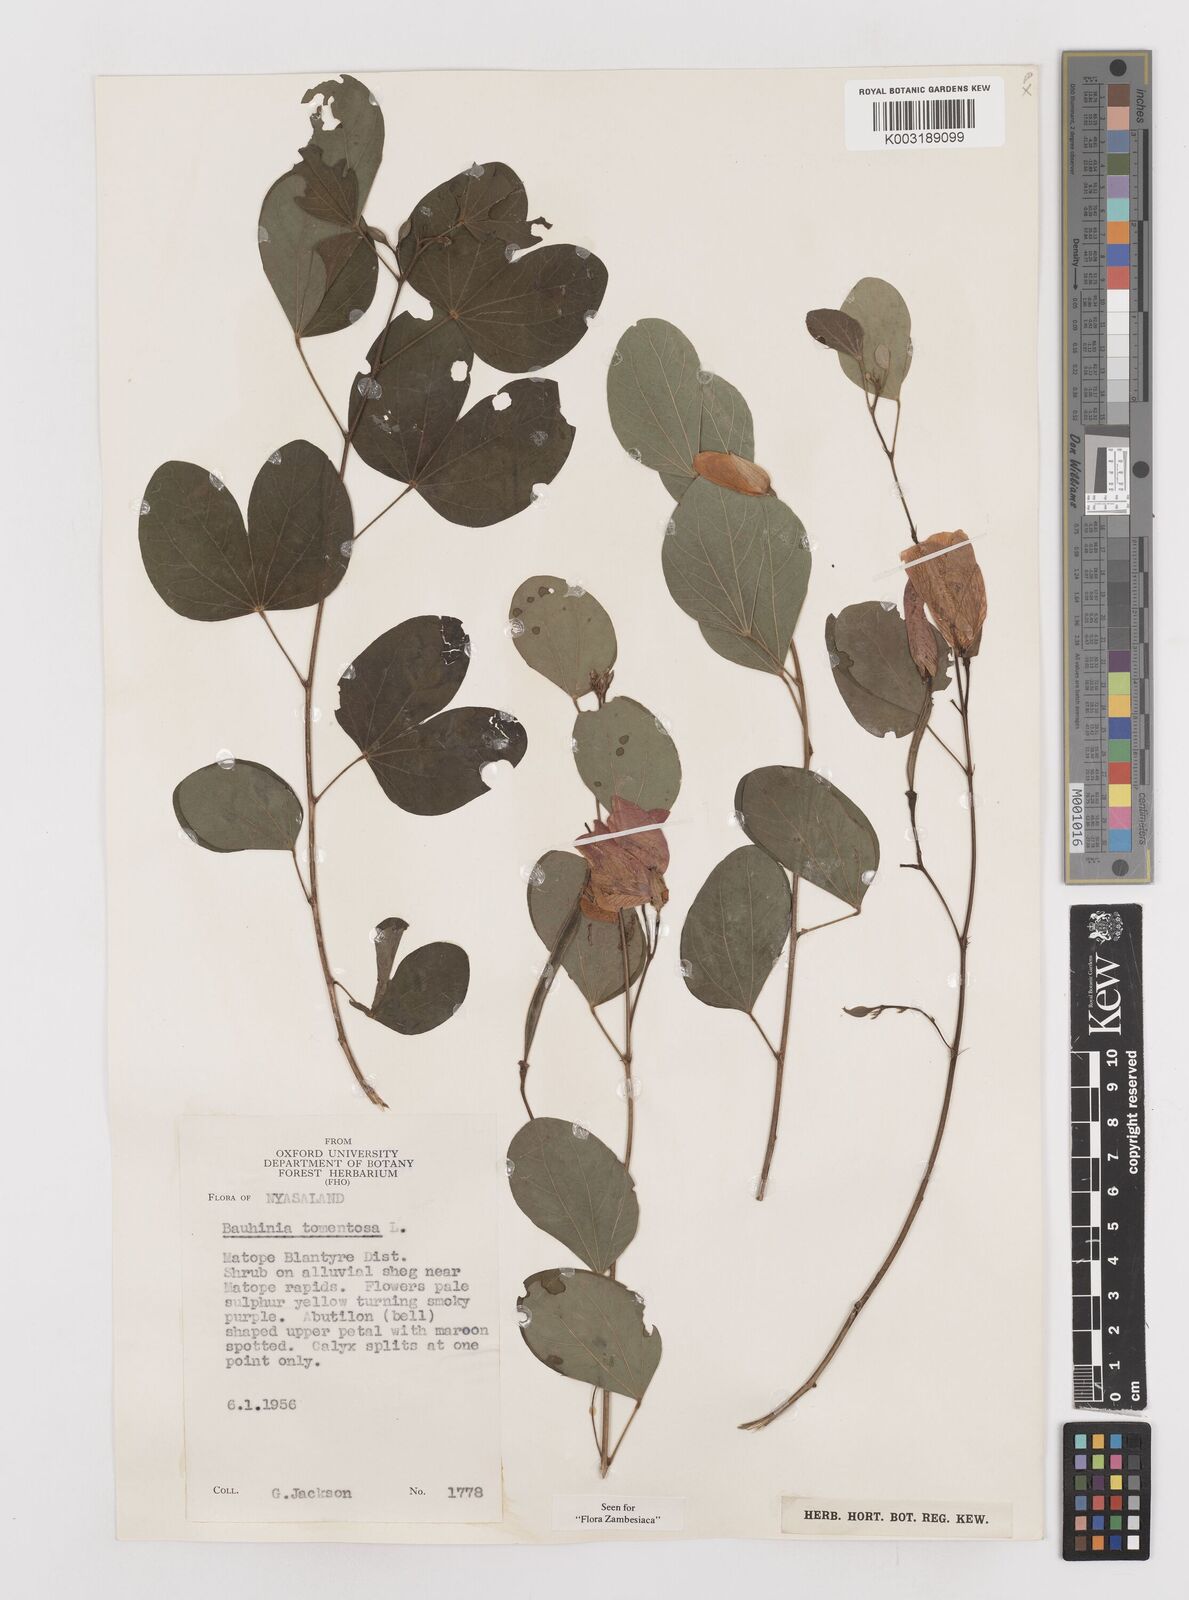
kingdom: Plantae
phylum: Tracheophyta
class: Magnoliopsida
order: Fabales
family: Fabaceae
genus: Bauhinia
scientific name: Bauhinia tomentosa
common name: Bell bauhinia
